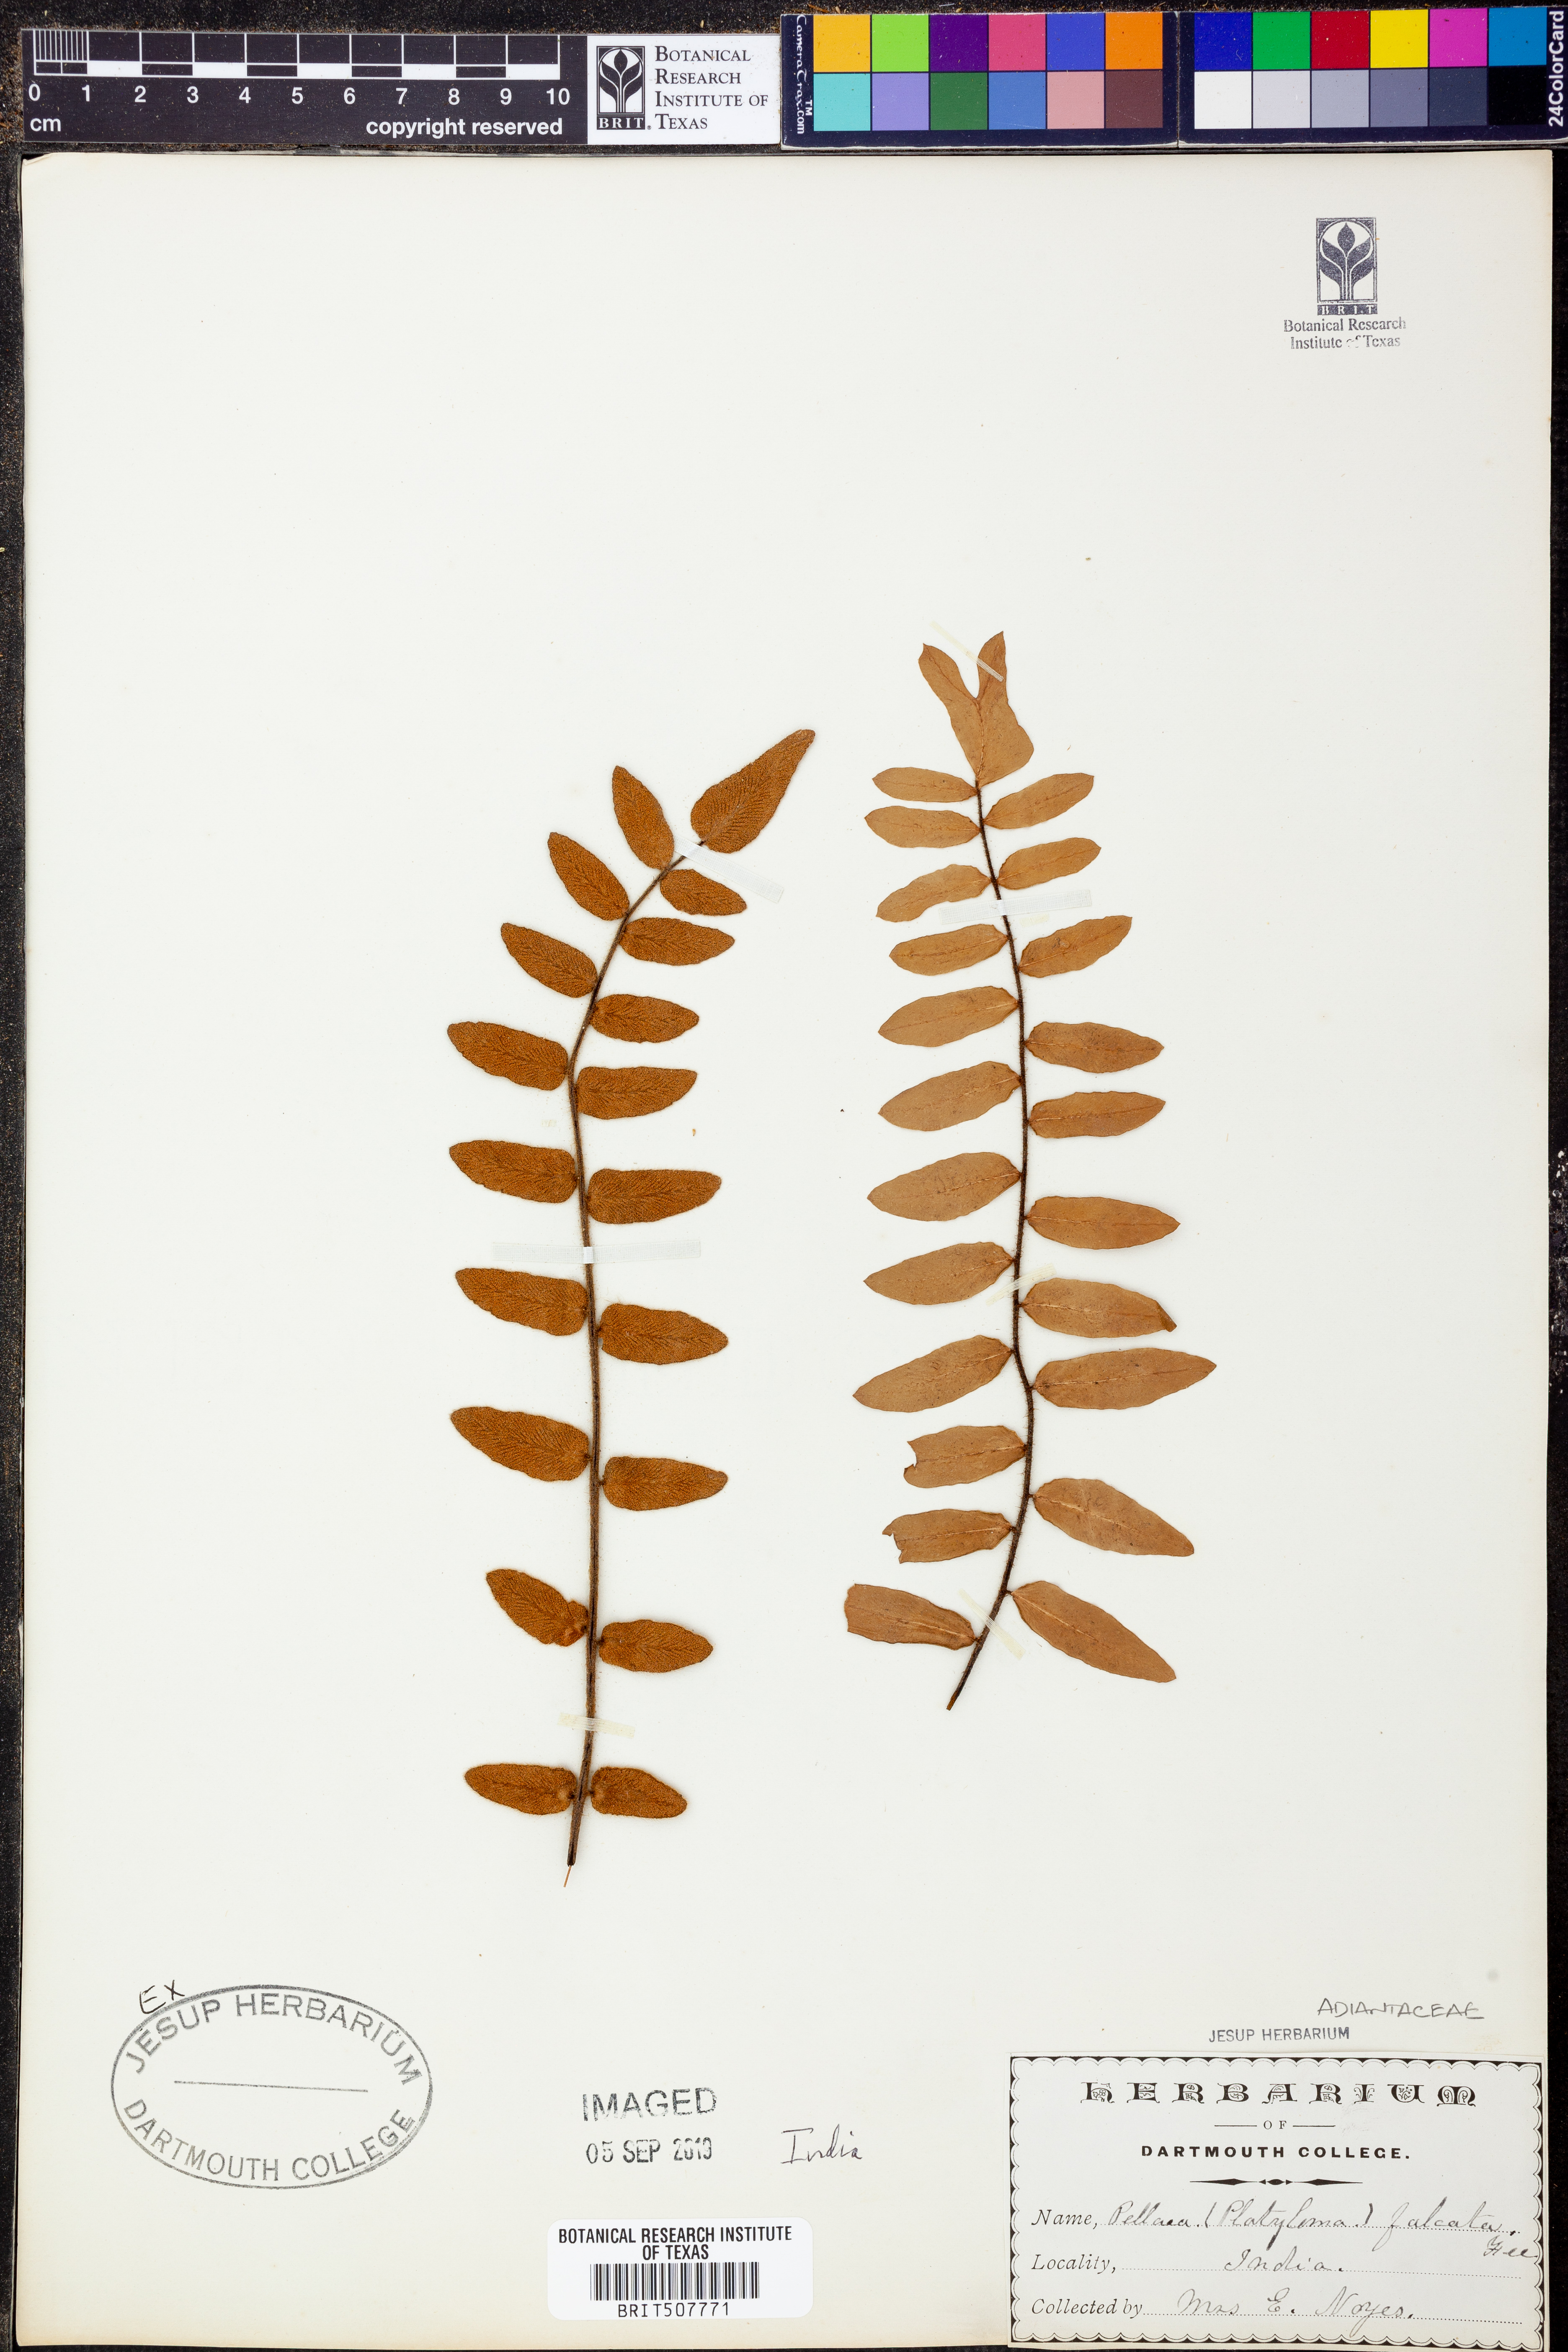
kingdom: Plantae
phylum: Tracheophyta
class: Polypodiopsida
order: Polypodiales
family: Pteridaceae
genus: Pellaea
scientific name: Pellaea falcata
